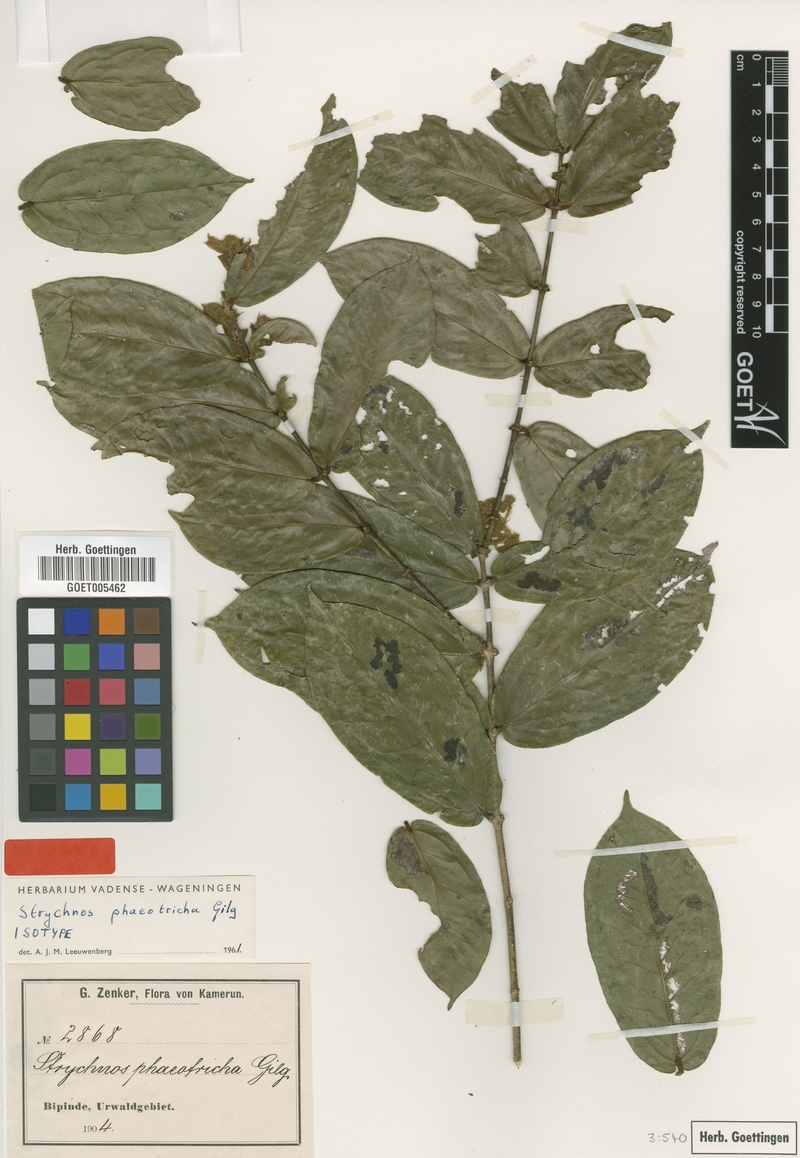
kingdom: Plantae
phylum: Tracheophyta
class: Magnoliopsida
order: Gentianales
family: Loganiaceae
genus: Strychnos
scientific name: Strychnos phaeotricha
